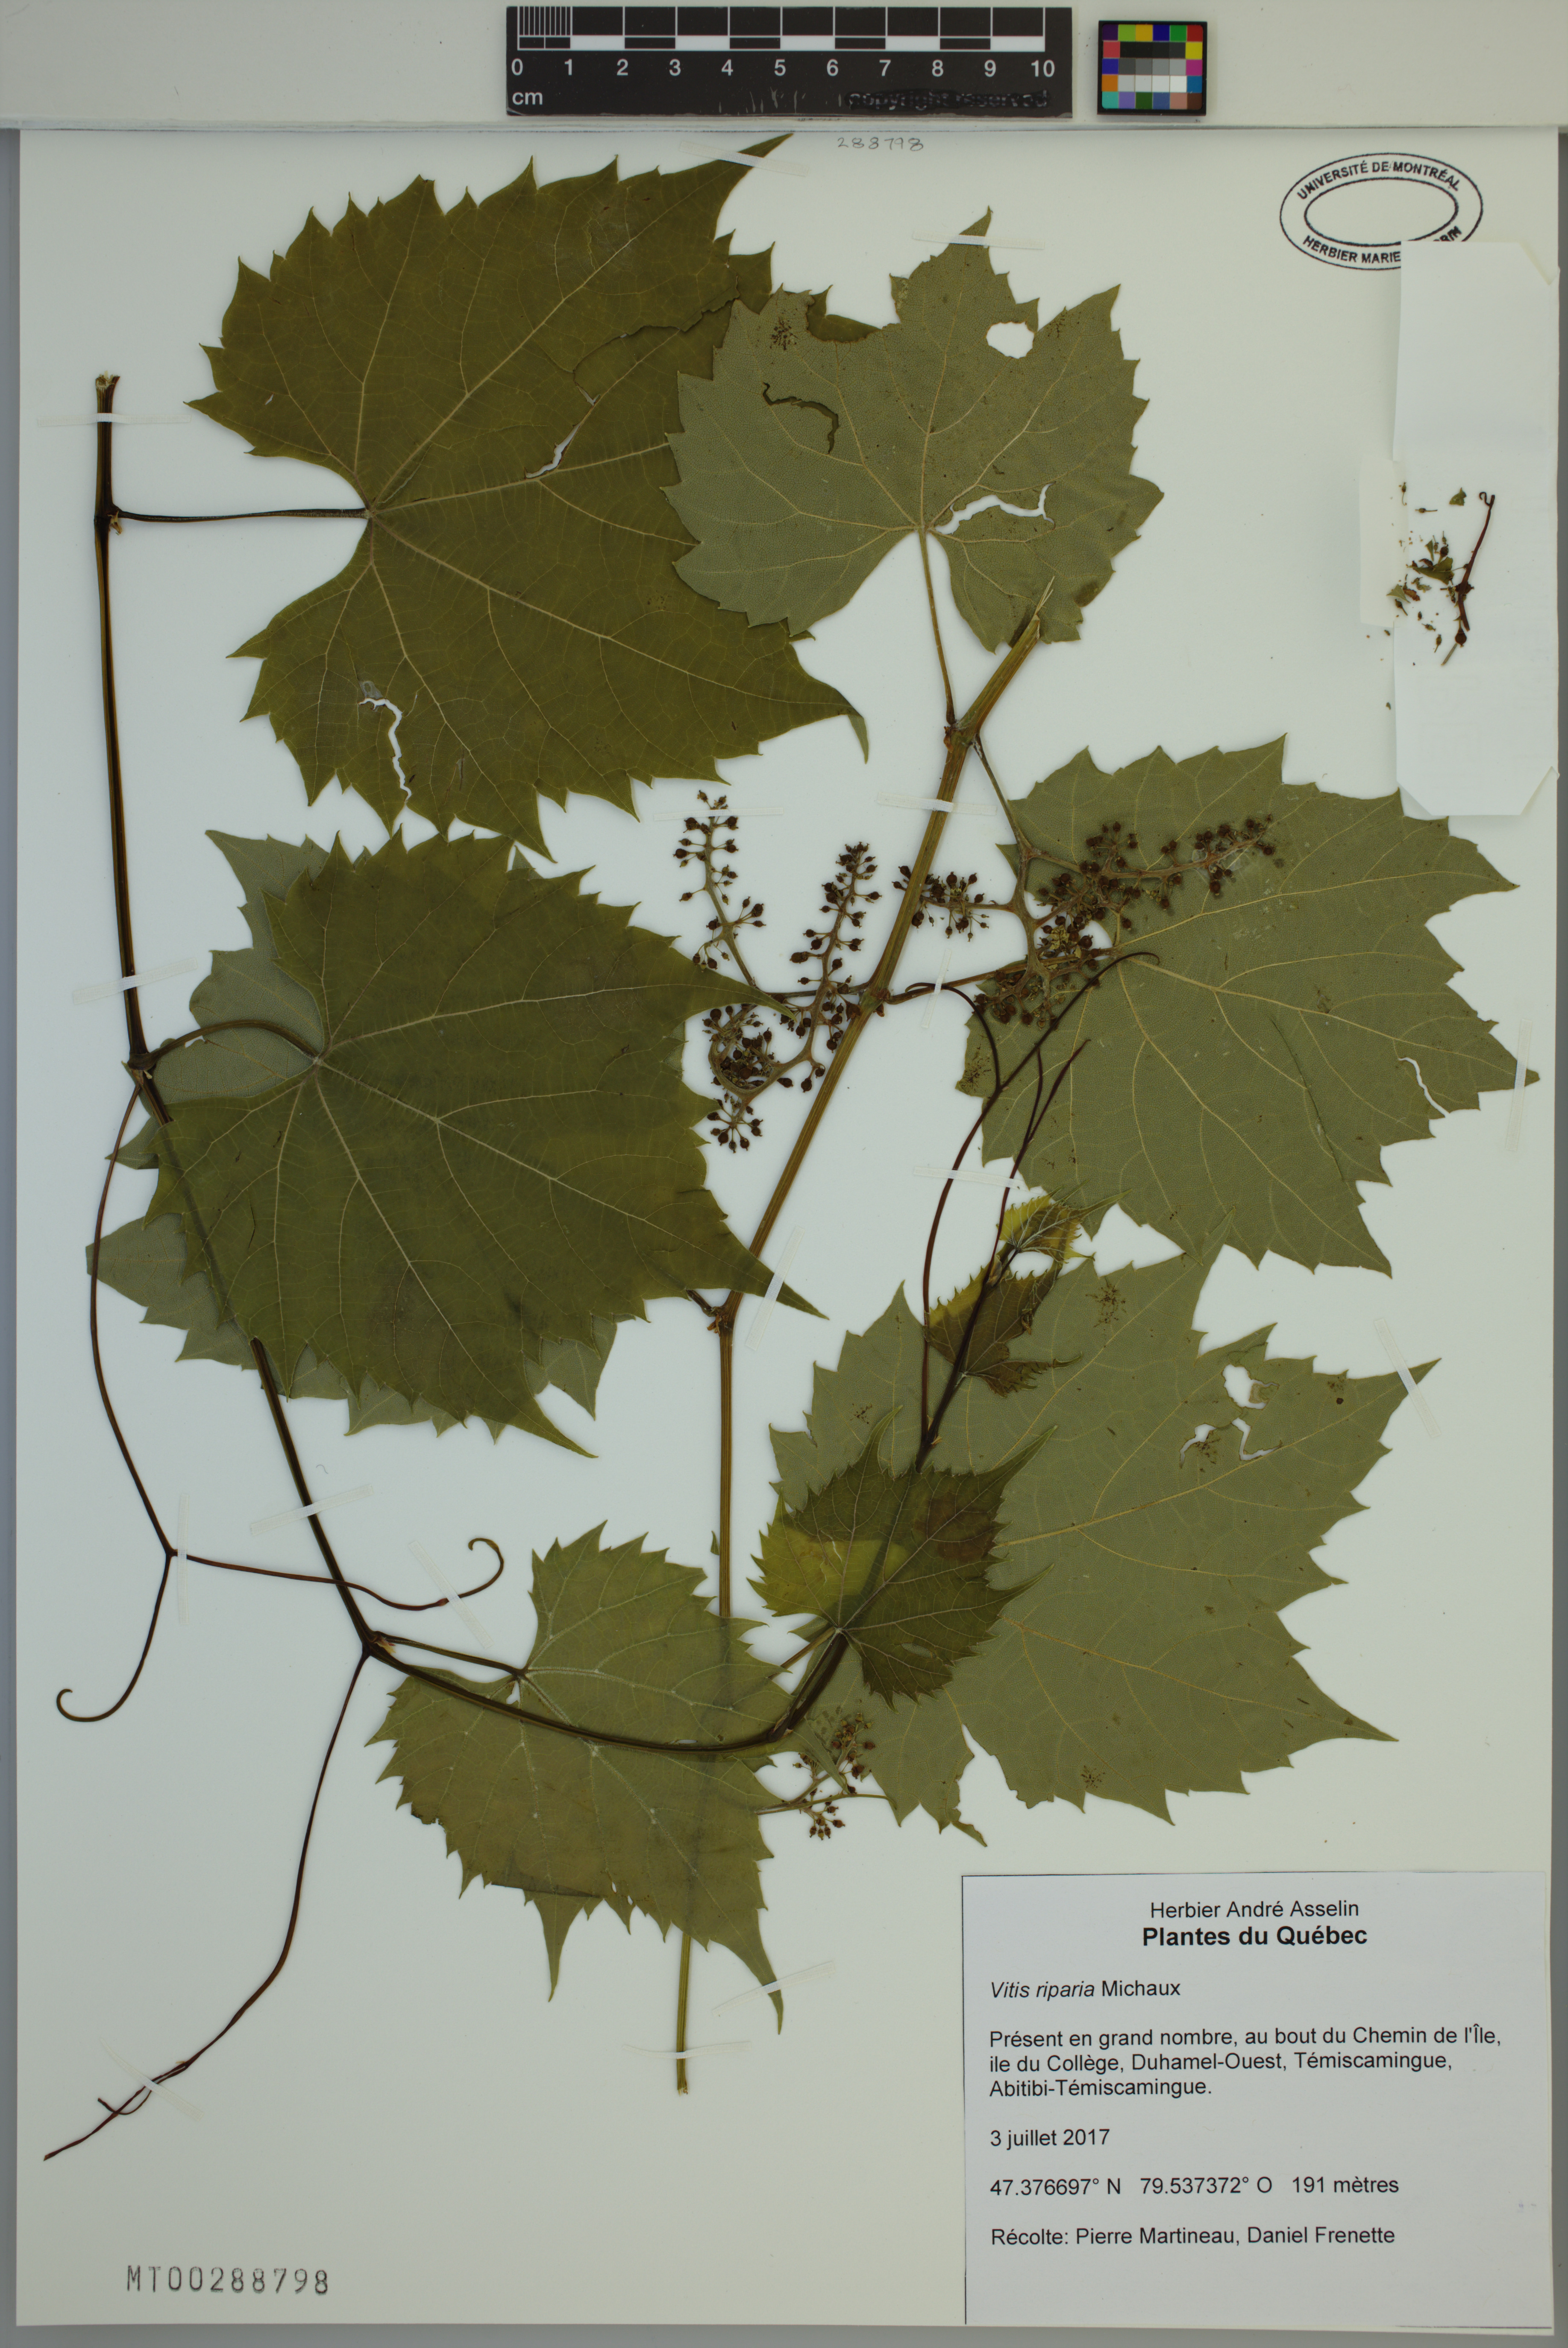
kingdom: Plantae
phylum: Tracheophyta
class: Magnoliopsida
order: Vitales
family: Vitaceae
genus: Vitis
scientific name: Vitis riparia
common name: Frost grape
